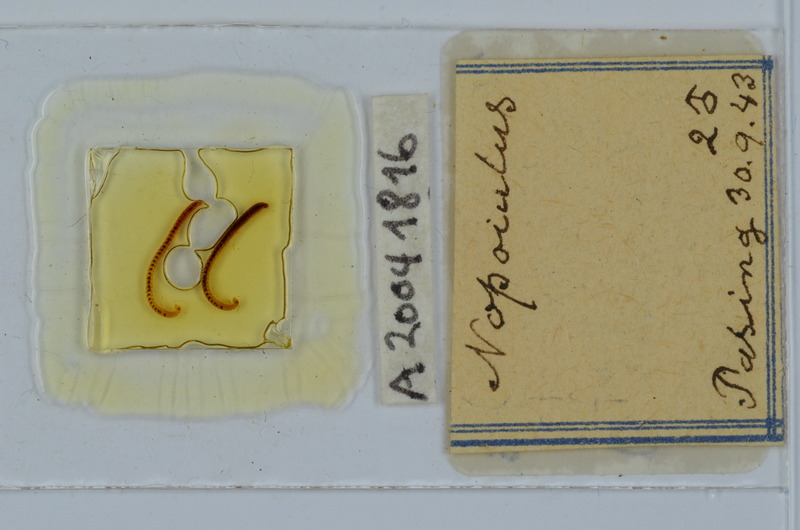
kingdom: Animalia
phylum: Arthropoda
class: Diplopoda
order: Julida
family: Blaniulidae
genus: Nopoiulus
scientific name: Nopoiulus
